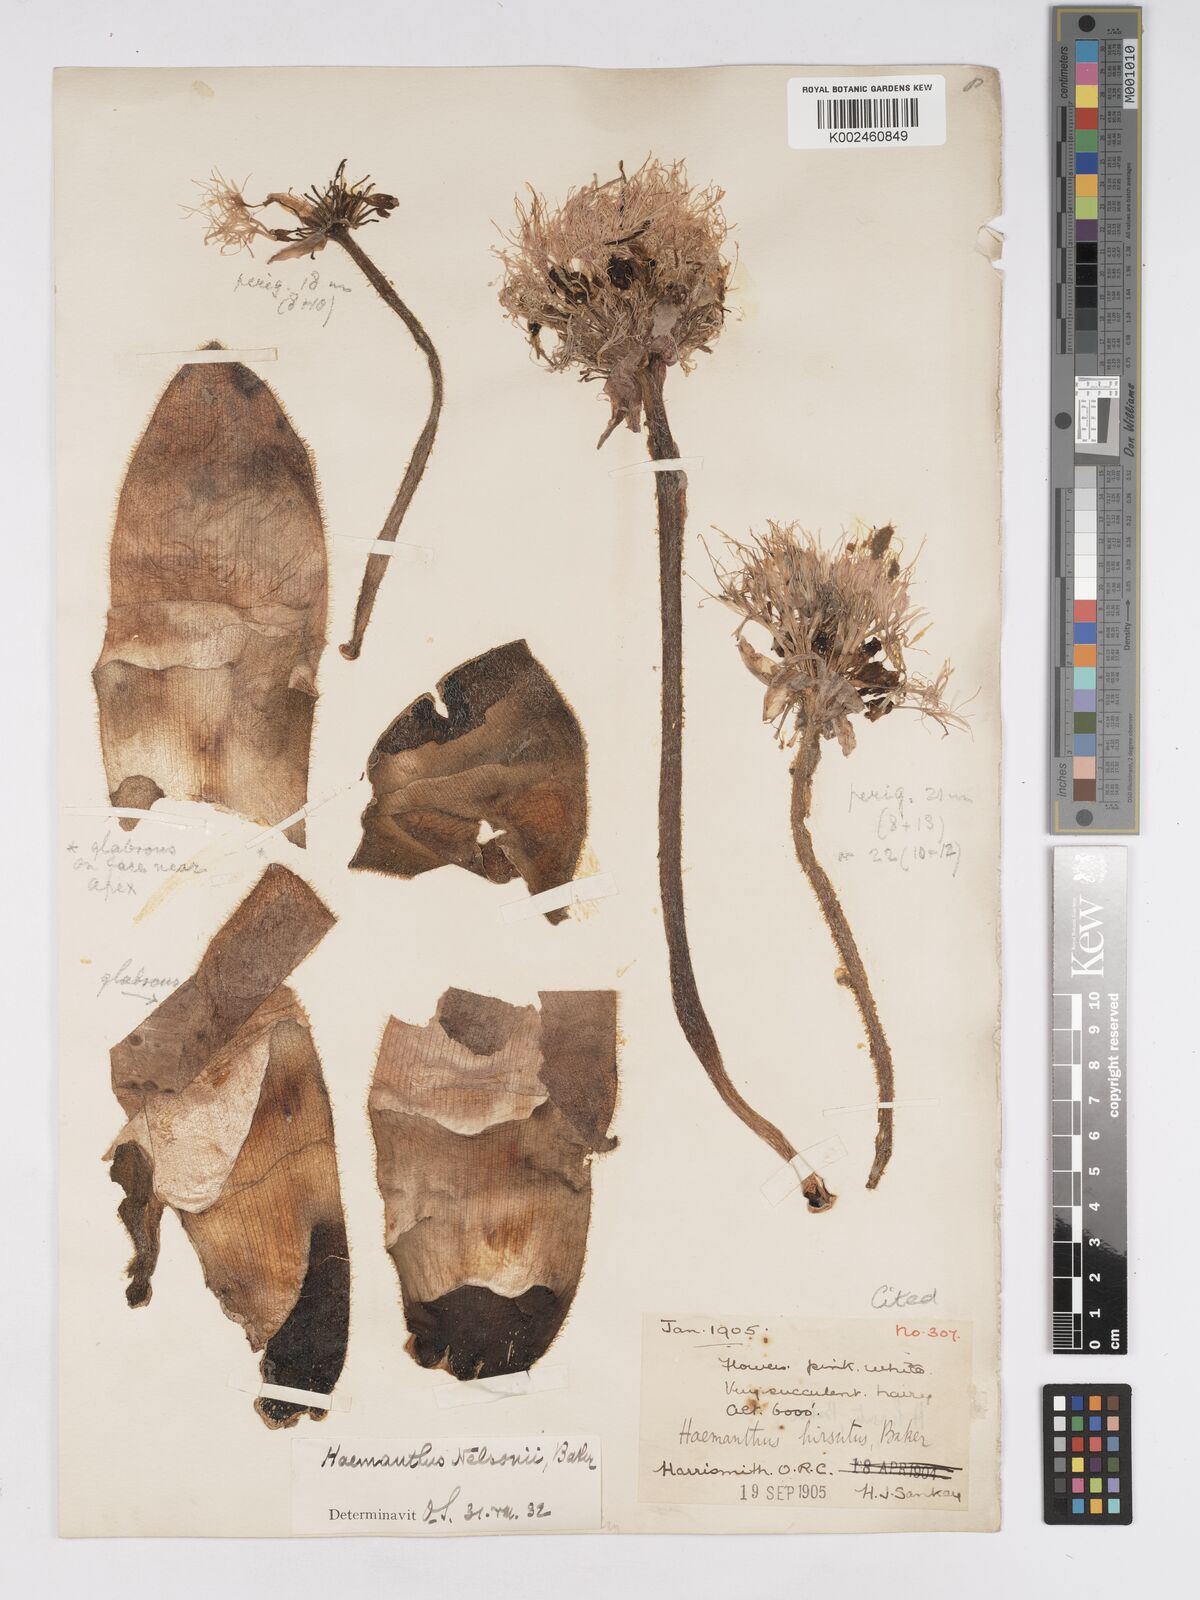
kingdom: Plantae
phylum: Tracheophyta
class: Liliopsida
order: Asparagales
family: Amaryllidaceae
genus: Haemanthus
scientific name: Haemanthus humilis
